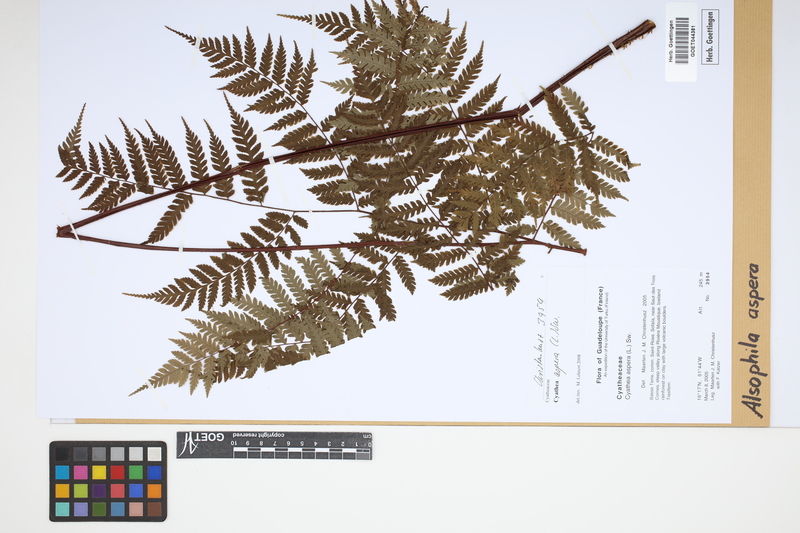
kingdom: Plantae
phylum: Tracheophyta
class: Polypodiopsida
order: Cyatheales
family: Cyatheaceae
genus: Cyathea
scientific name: Cyathea aspera
